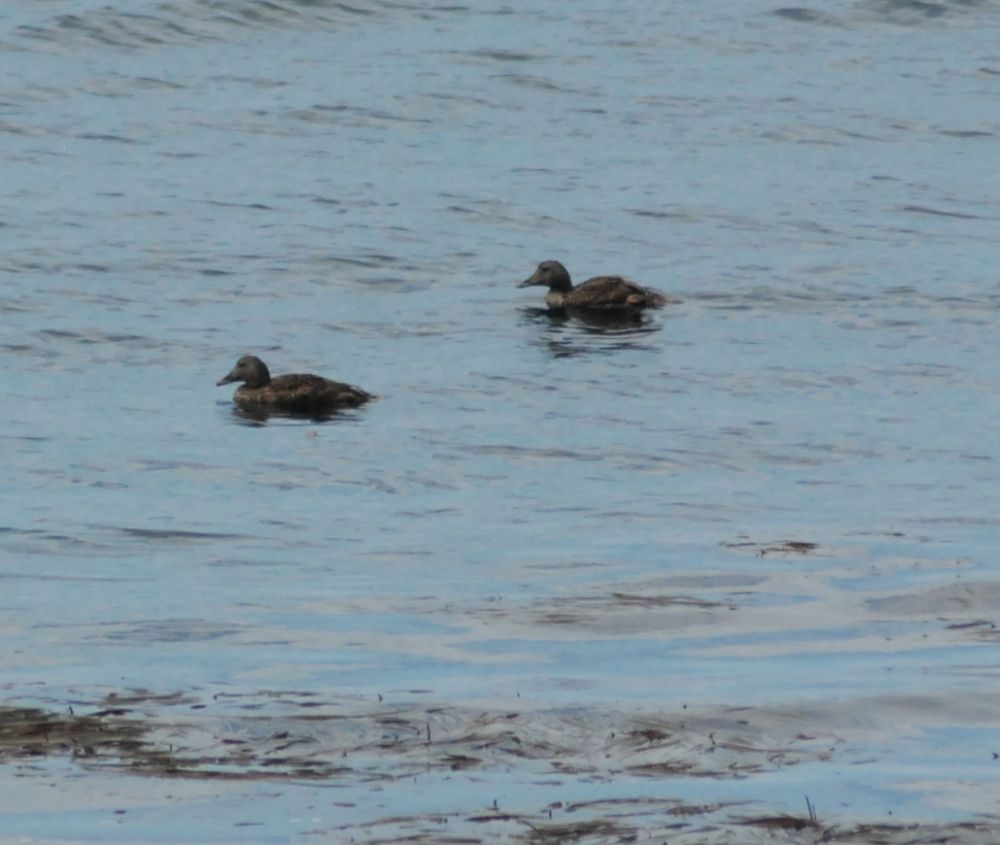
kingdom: Animalia
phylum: Chordata
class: Aves
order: Anseriformes
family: Anatidae
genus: Somateria
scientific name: Somateria mollissima
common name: Common eider
